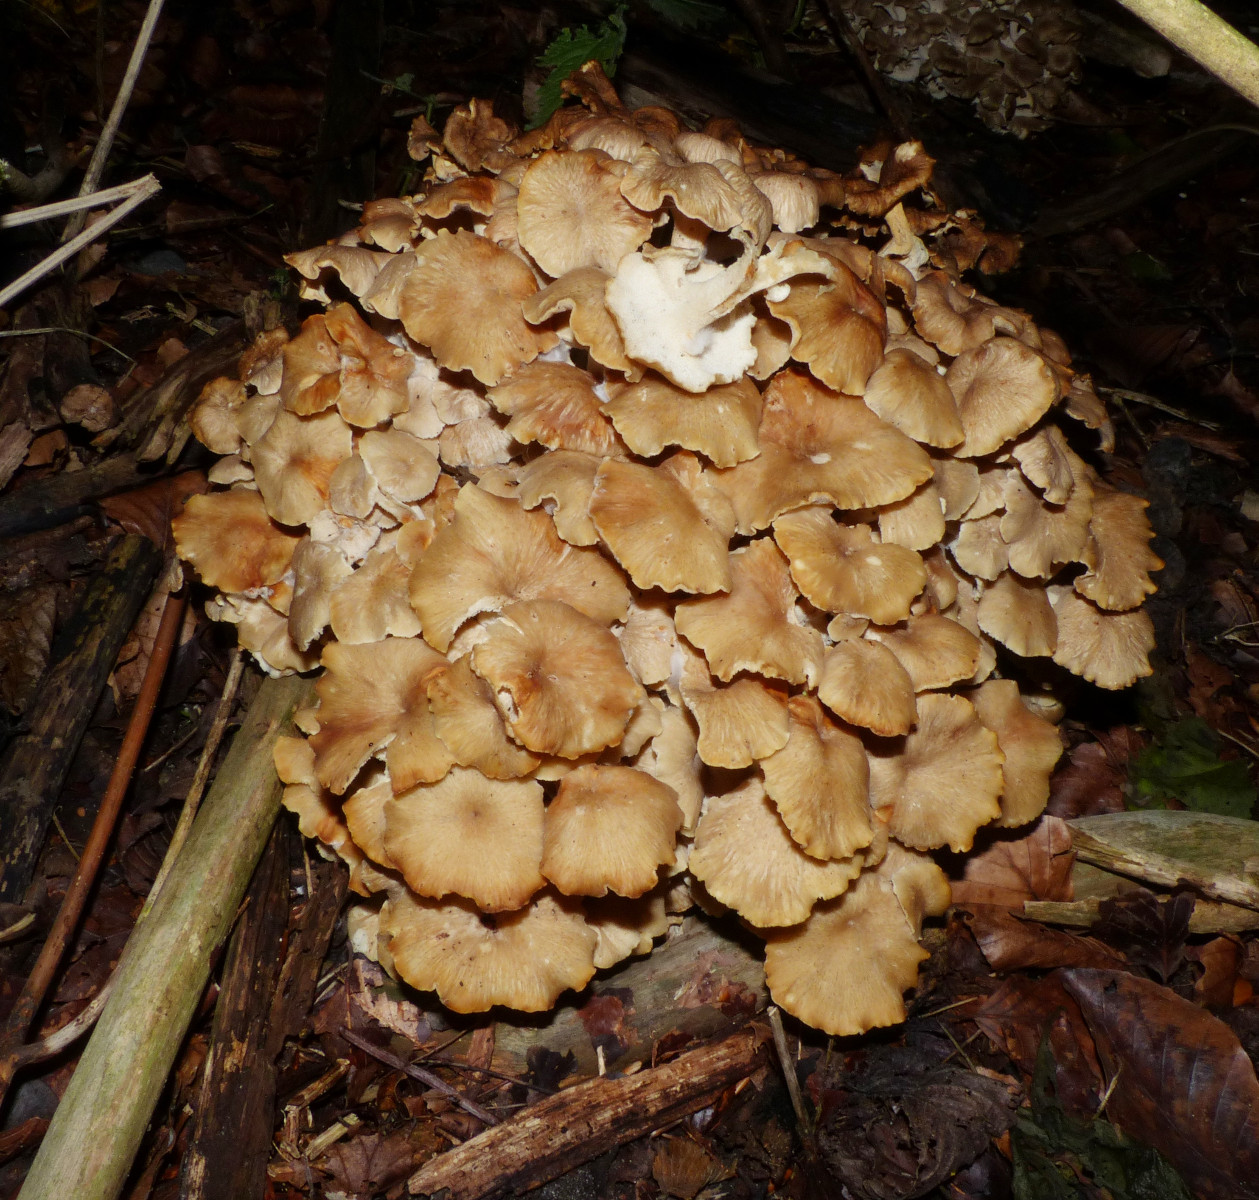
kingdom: Fungi
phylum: Basidiomycota
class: Agaricomycetes
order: Polyporales
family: Polyporaceae
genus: Polyporus
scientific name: Polyporus umbellatus
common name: skærmformet stilkporesvamp
